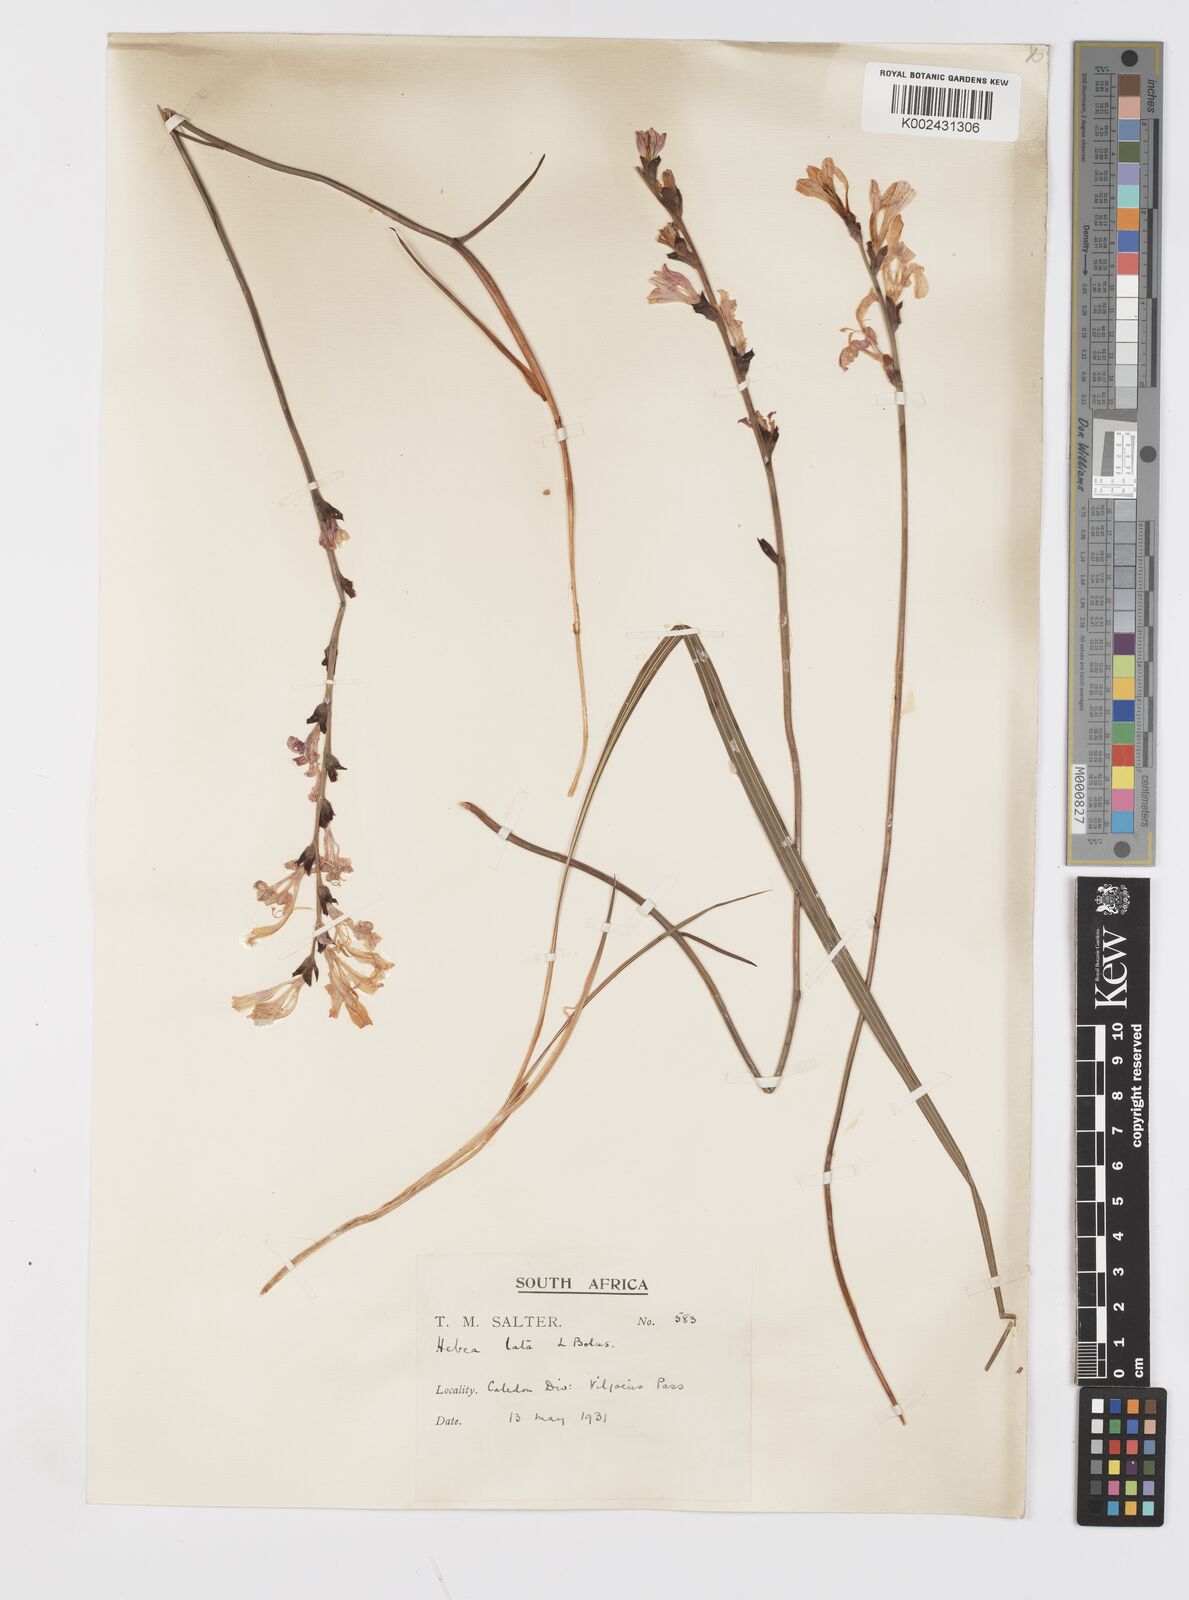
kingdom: Plantae
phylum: Tracheophyta
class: Liliopsida
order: Asparagales
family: Iridaceae
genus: Tritoniopsis
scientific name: Tritoniopsis lata
